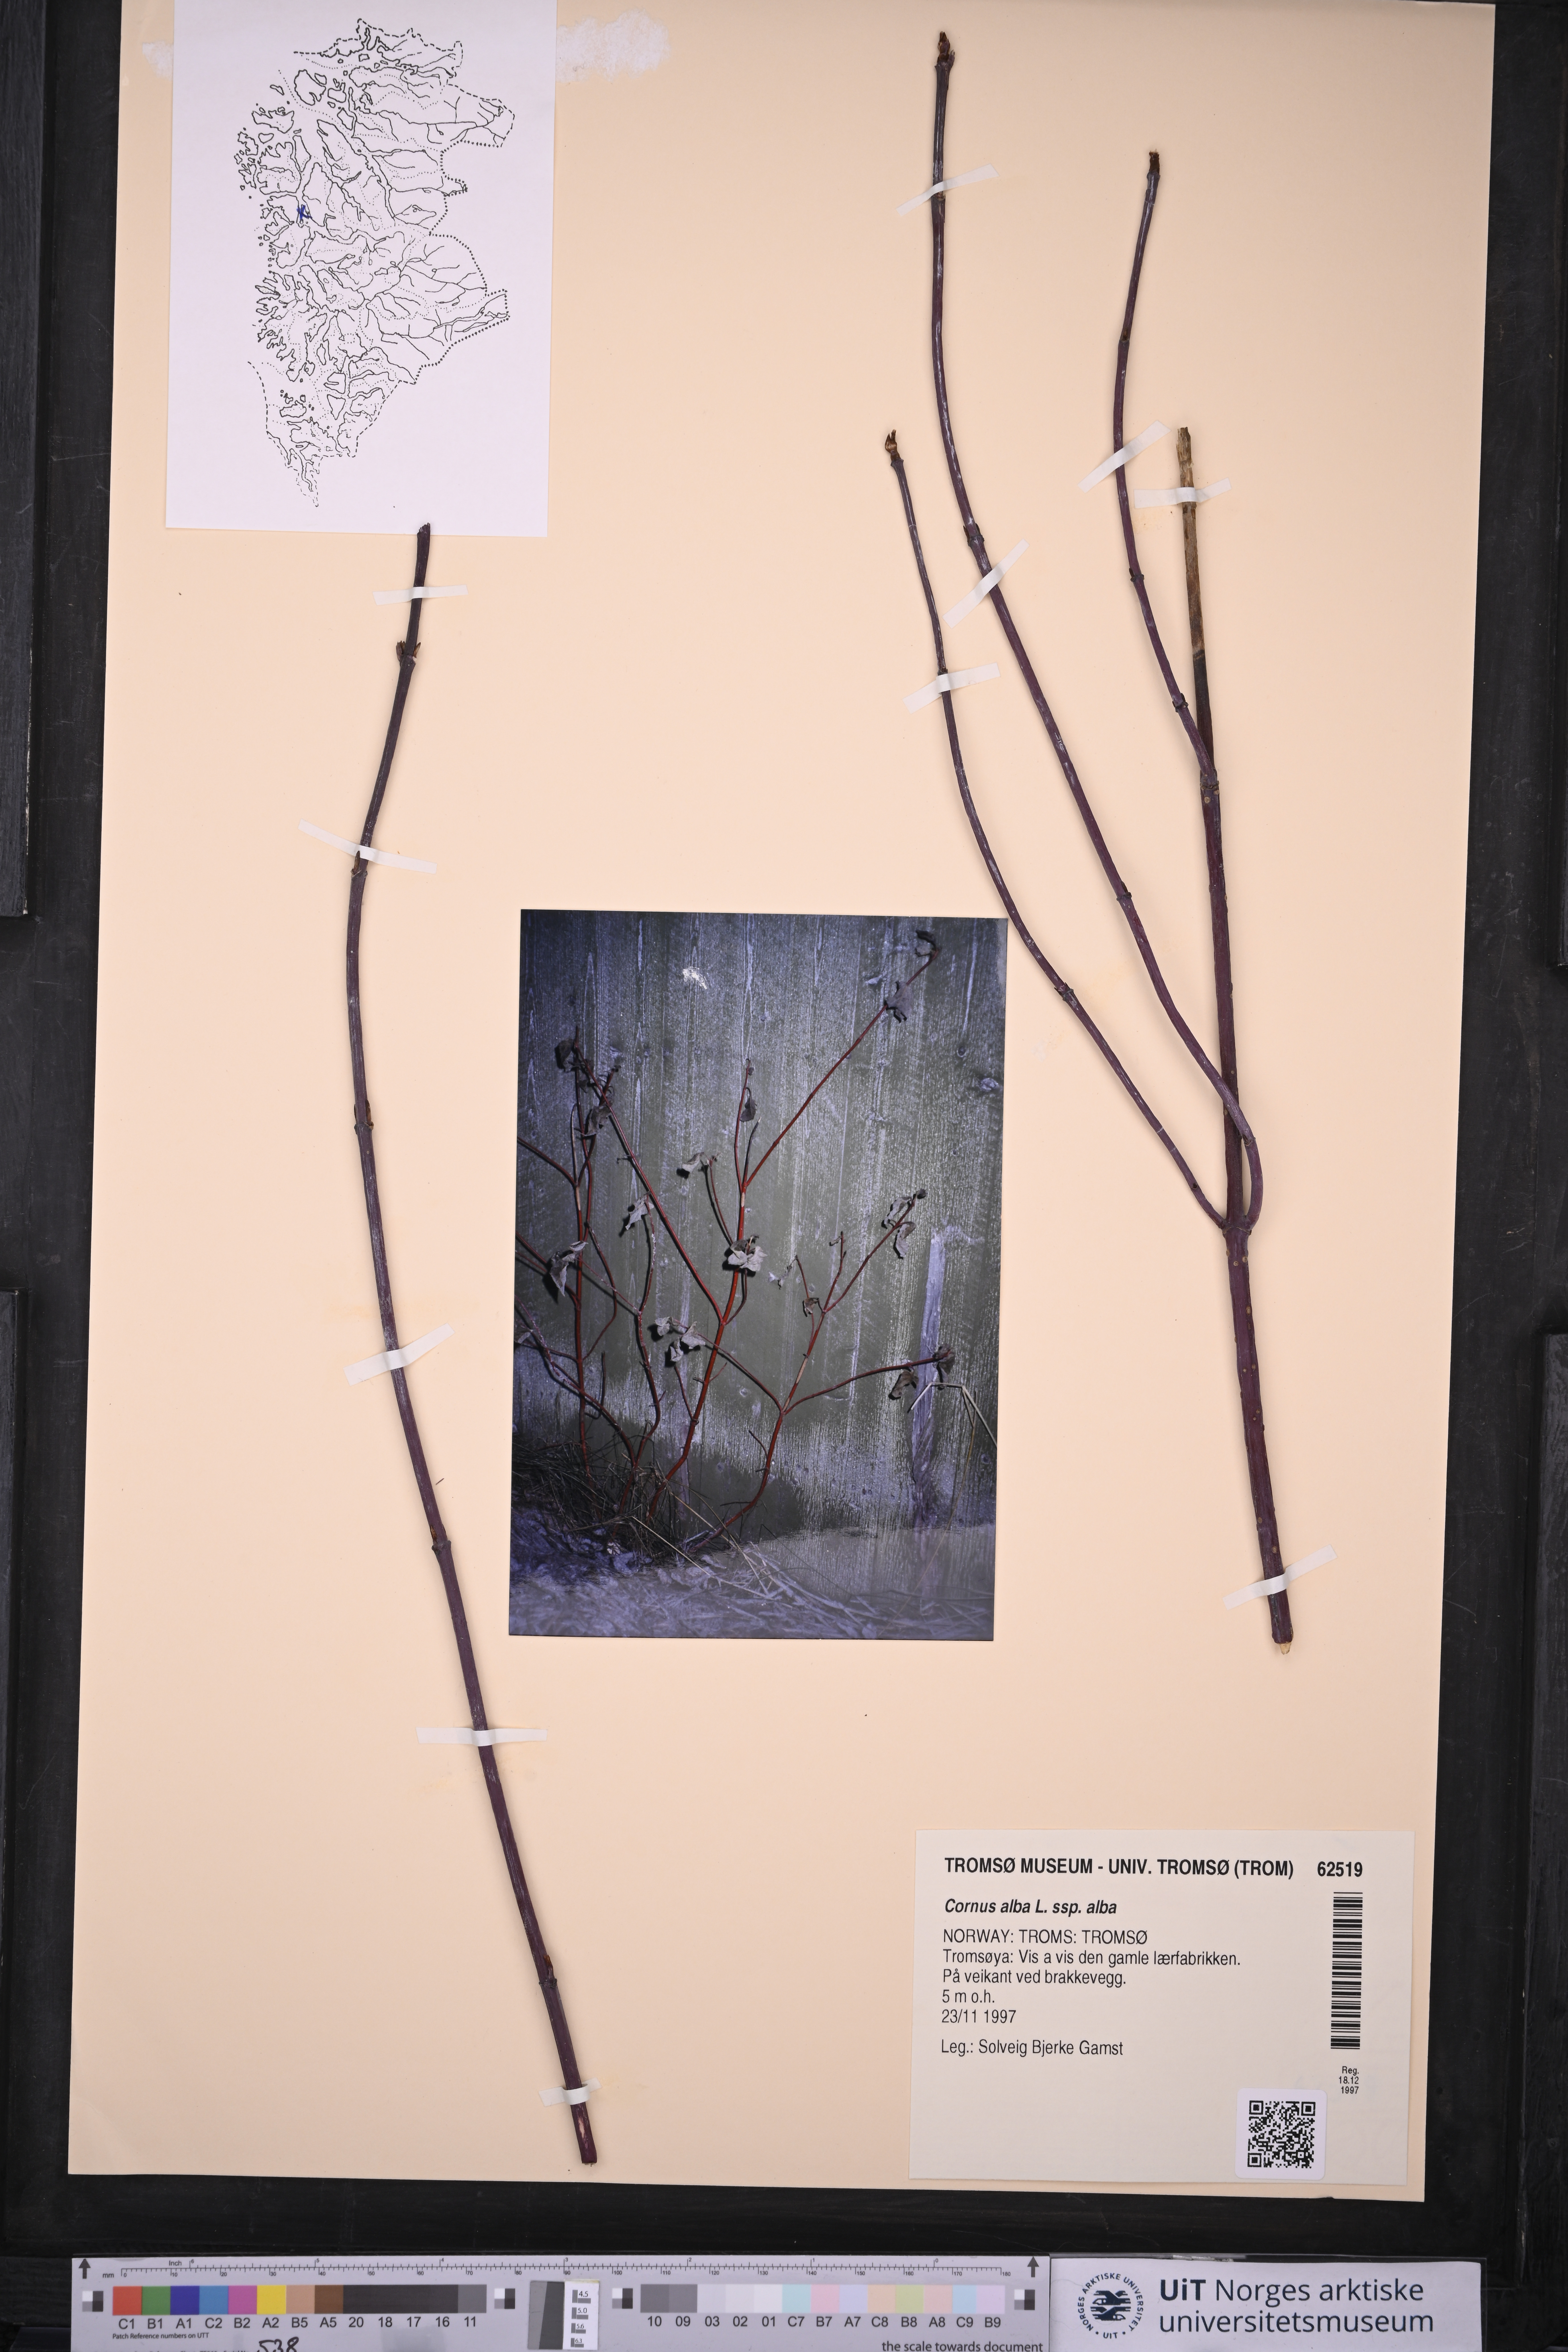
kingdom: Plantae
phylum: Tracheophyta
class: Magnoliopsida
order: Cornales
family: Cornaceae
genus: Cornus
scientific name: Cornus alba
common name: White dogwood
